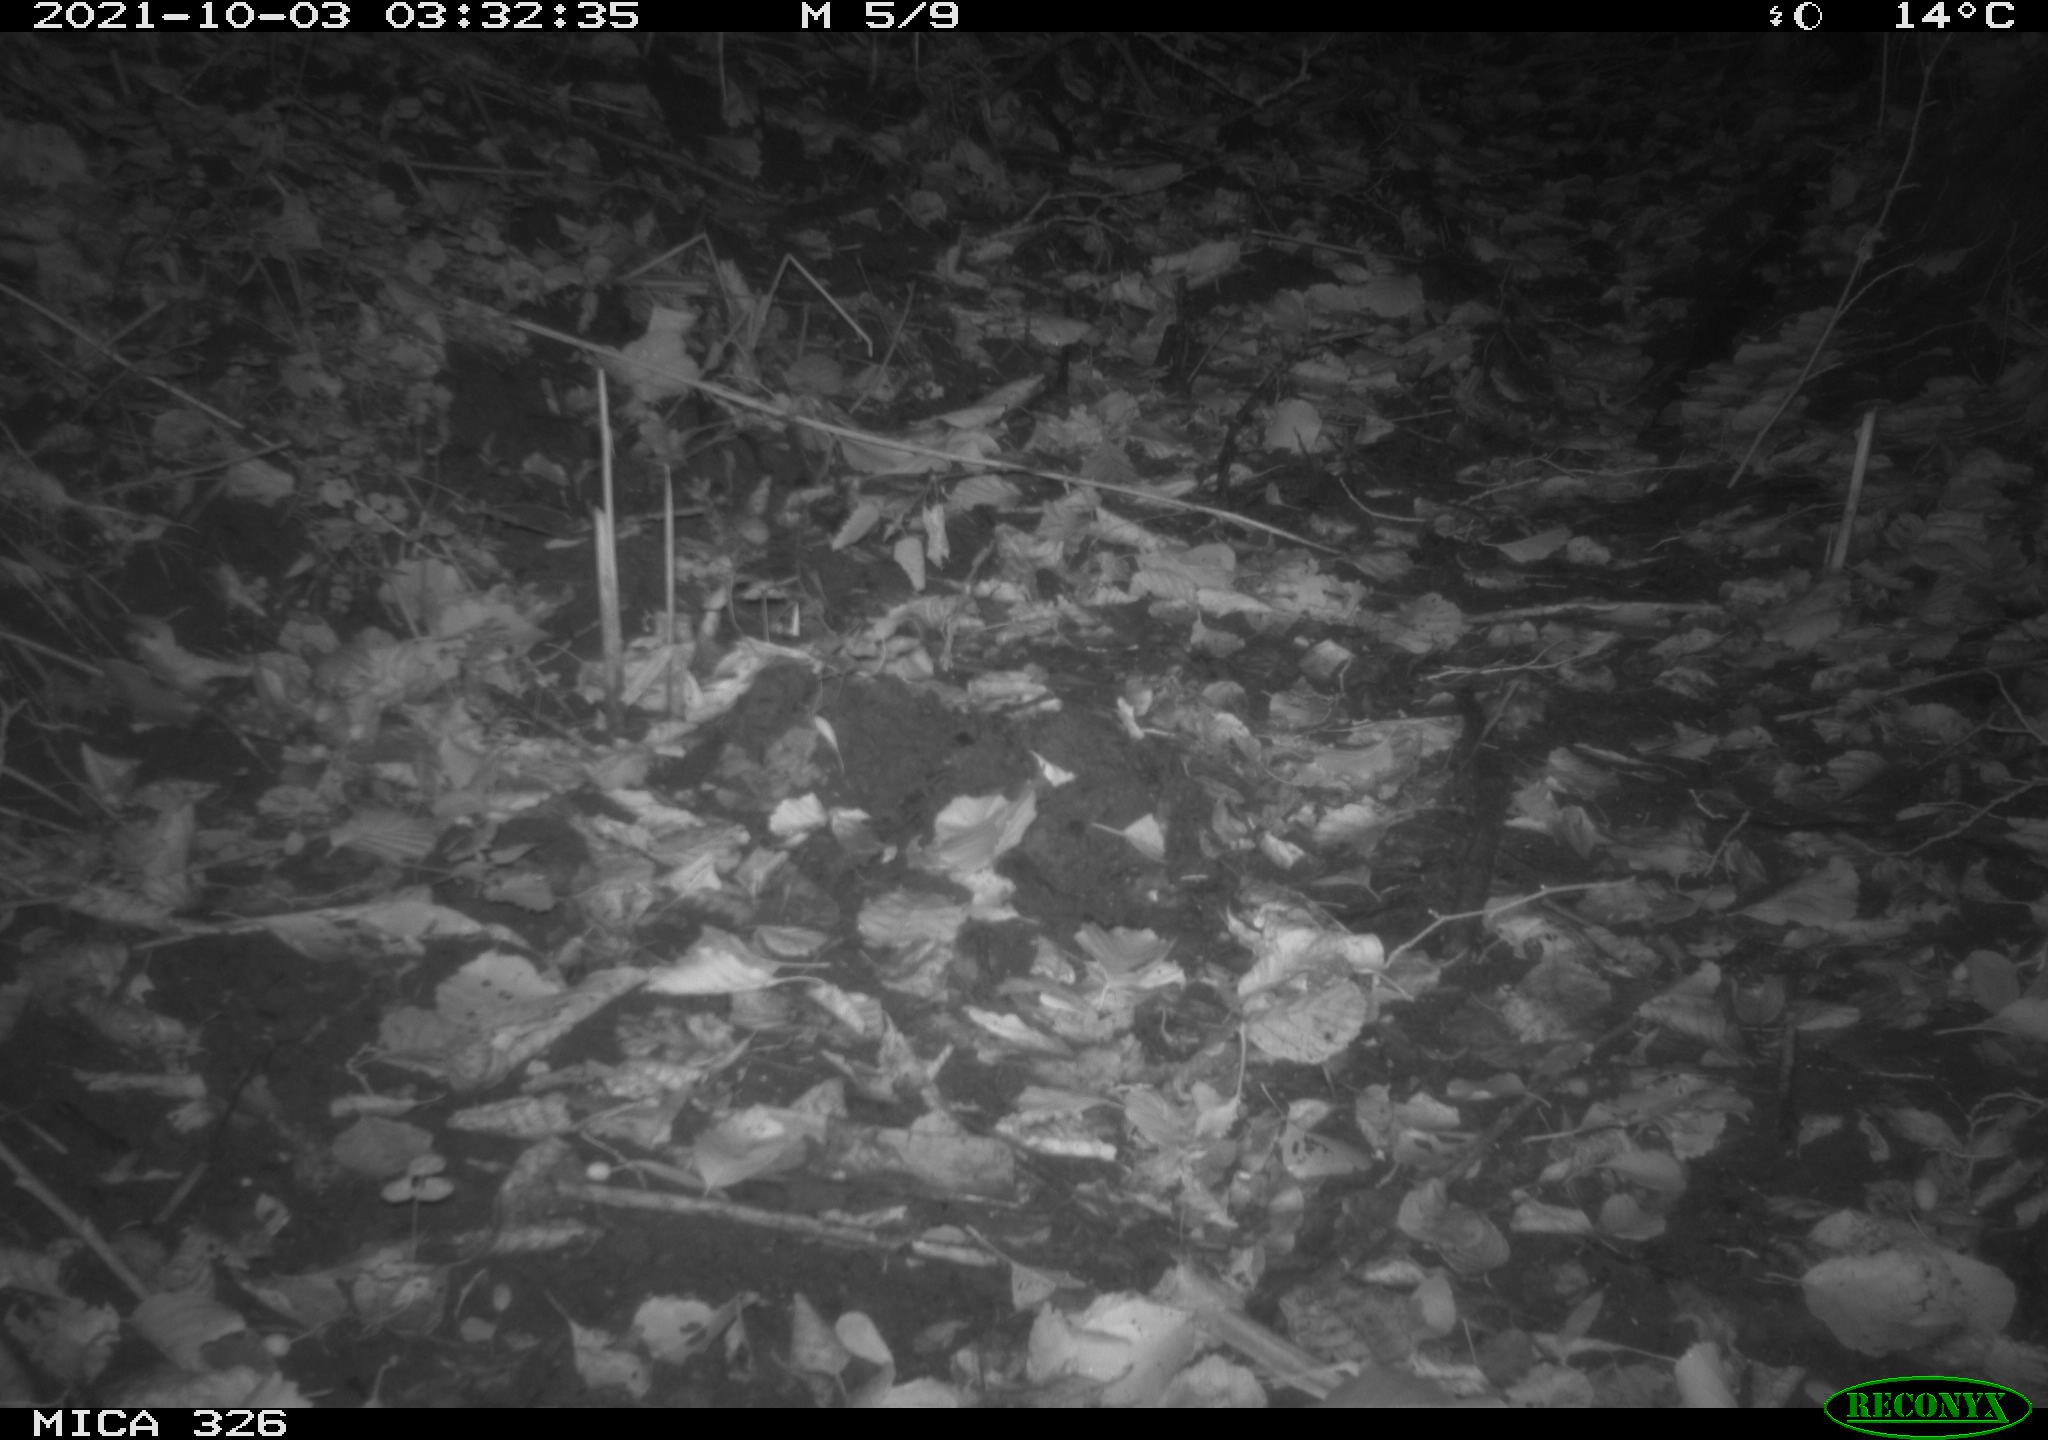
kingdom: Animalia
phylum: Chordata
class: Mammalia
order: Rodentia
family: Cricetidae
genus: Ondatra
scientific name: Ondatra zibethicus
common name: Muskrat
